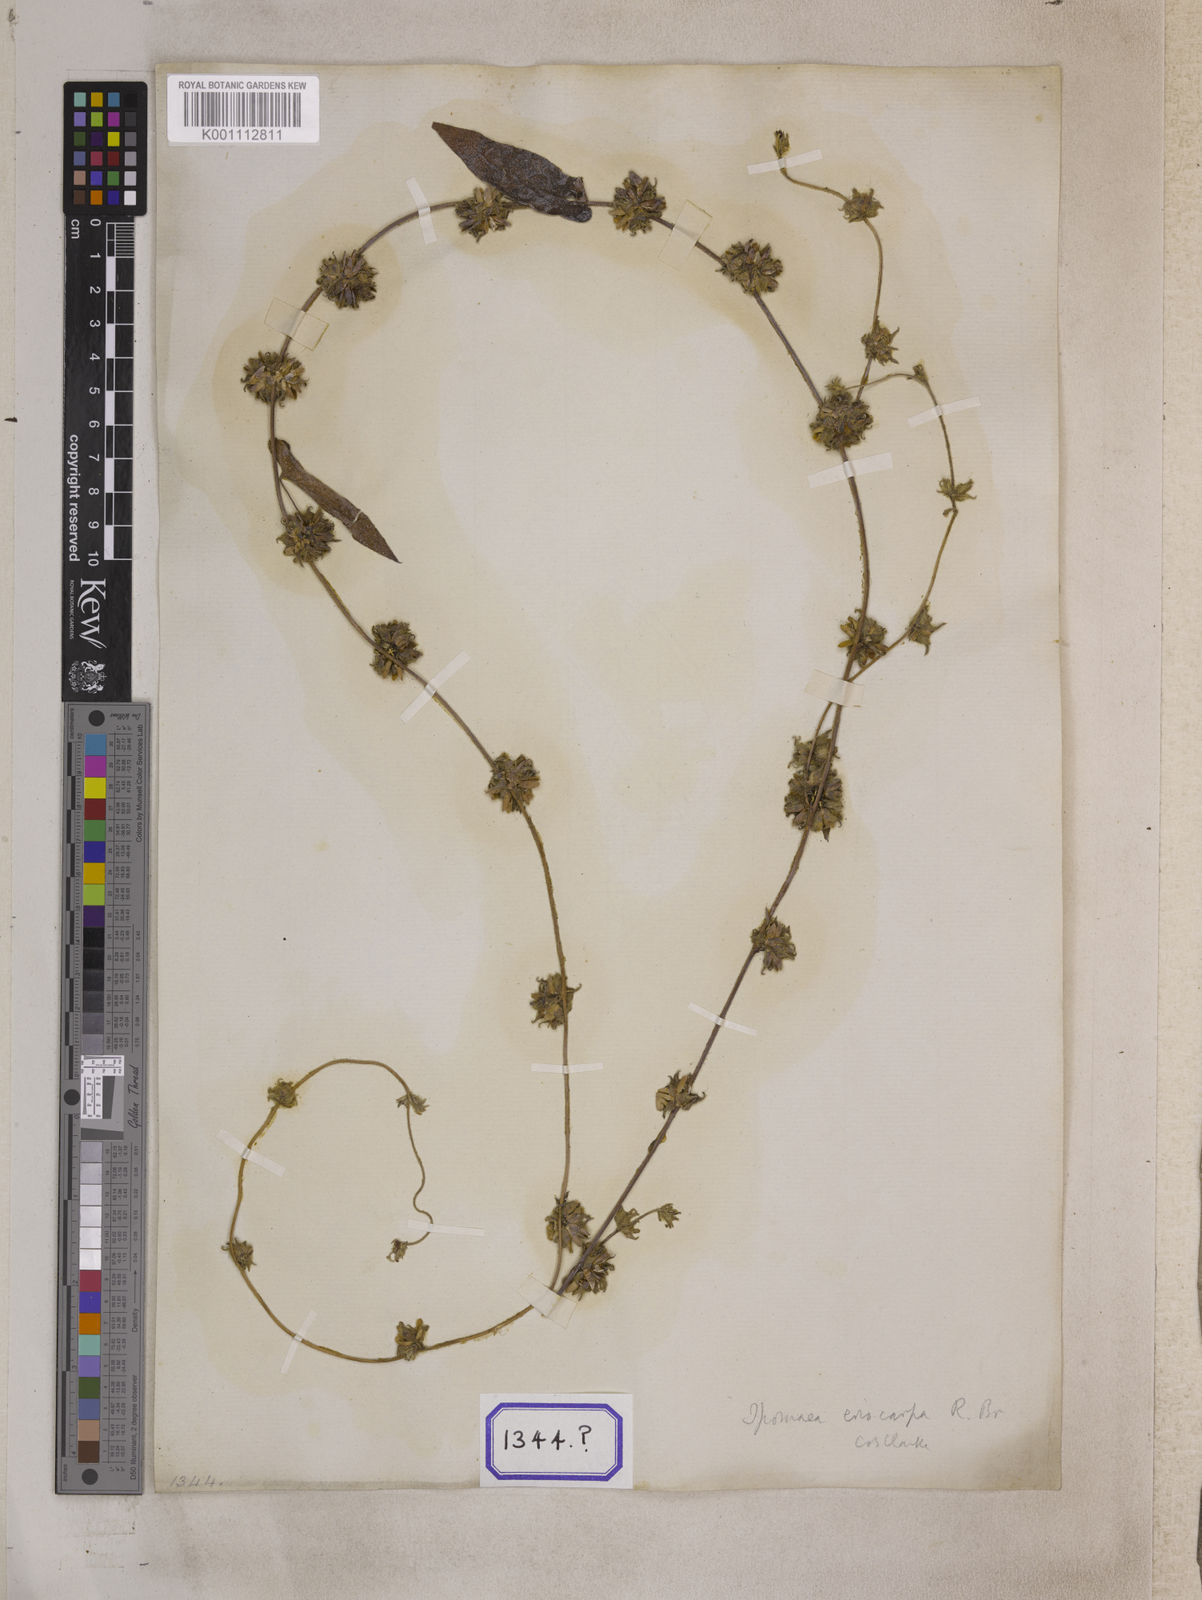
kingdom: Plantae
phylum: Tracheophyta
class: Magnoliopsida
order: Solanales
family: Convolvulaceae
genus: Argyreia
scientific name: Argyreia atropurpurea
